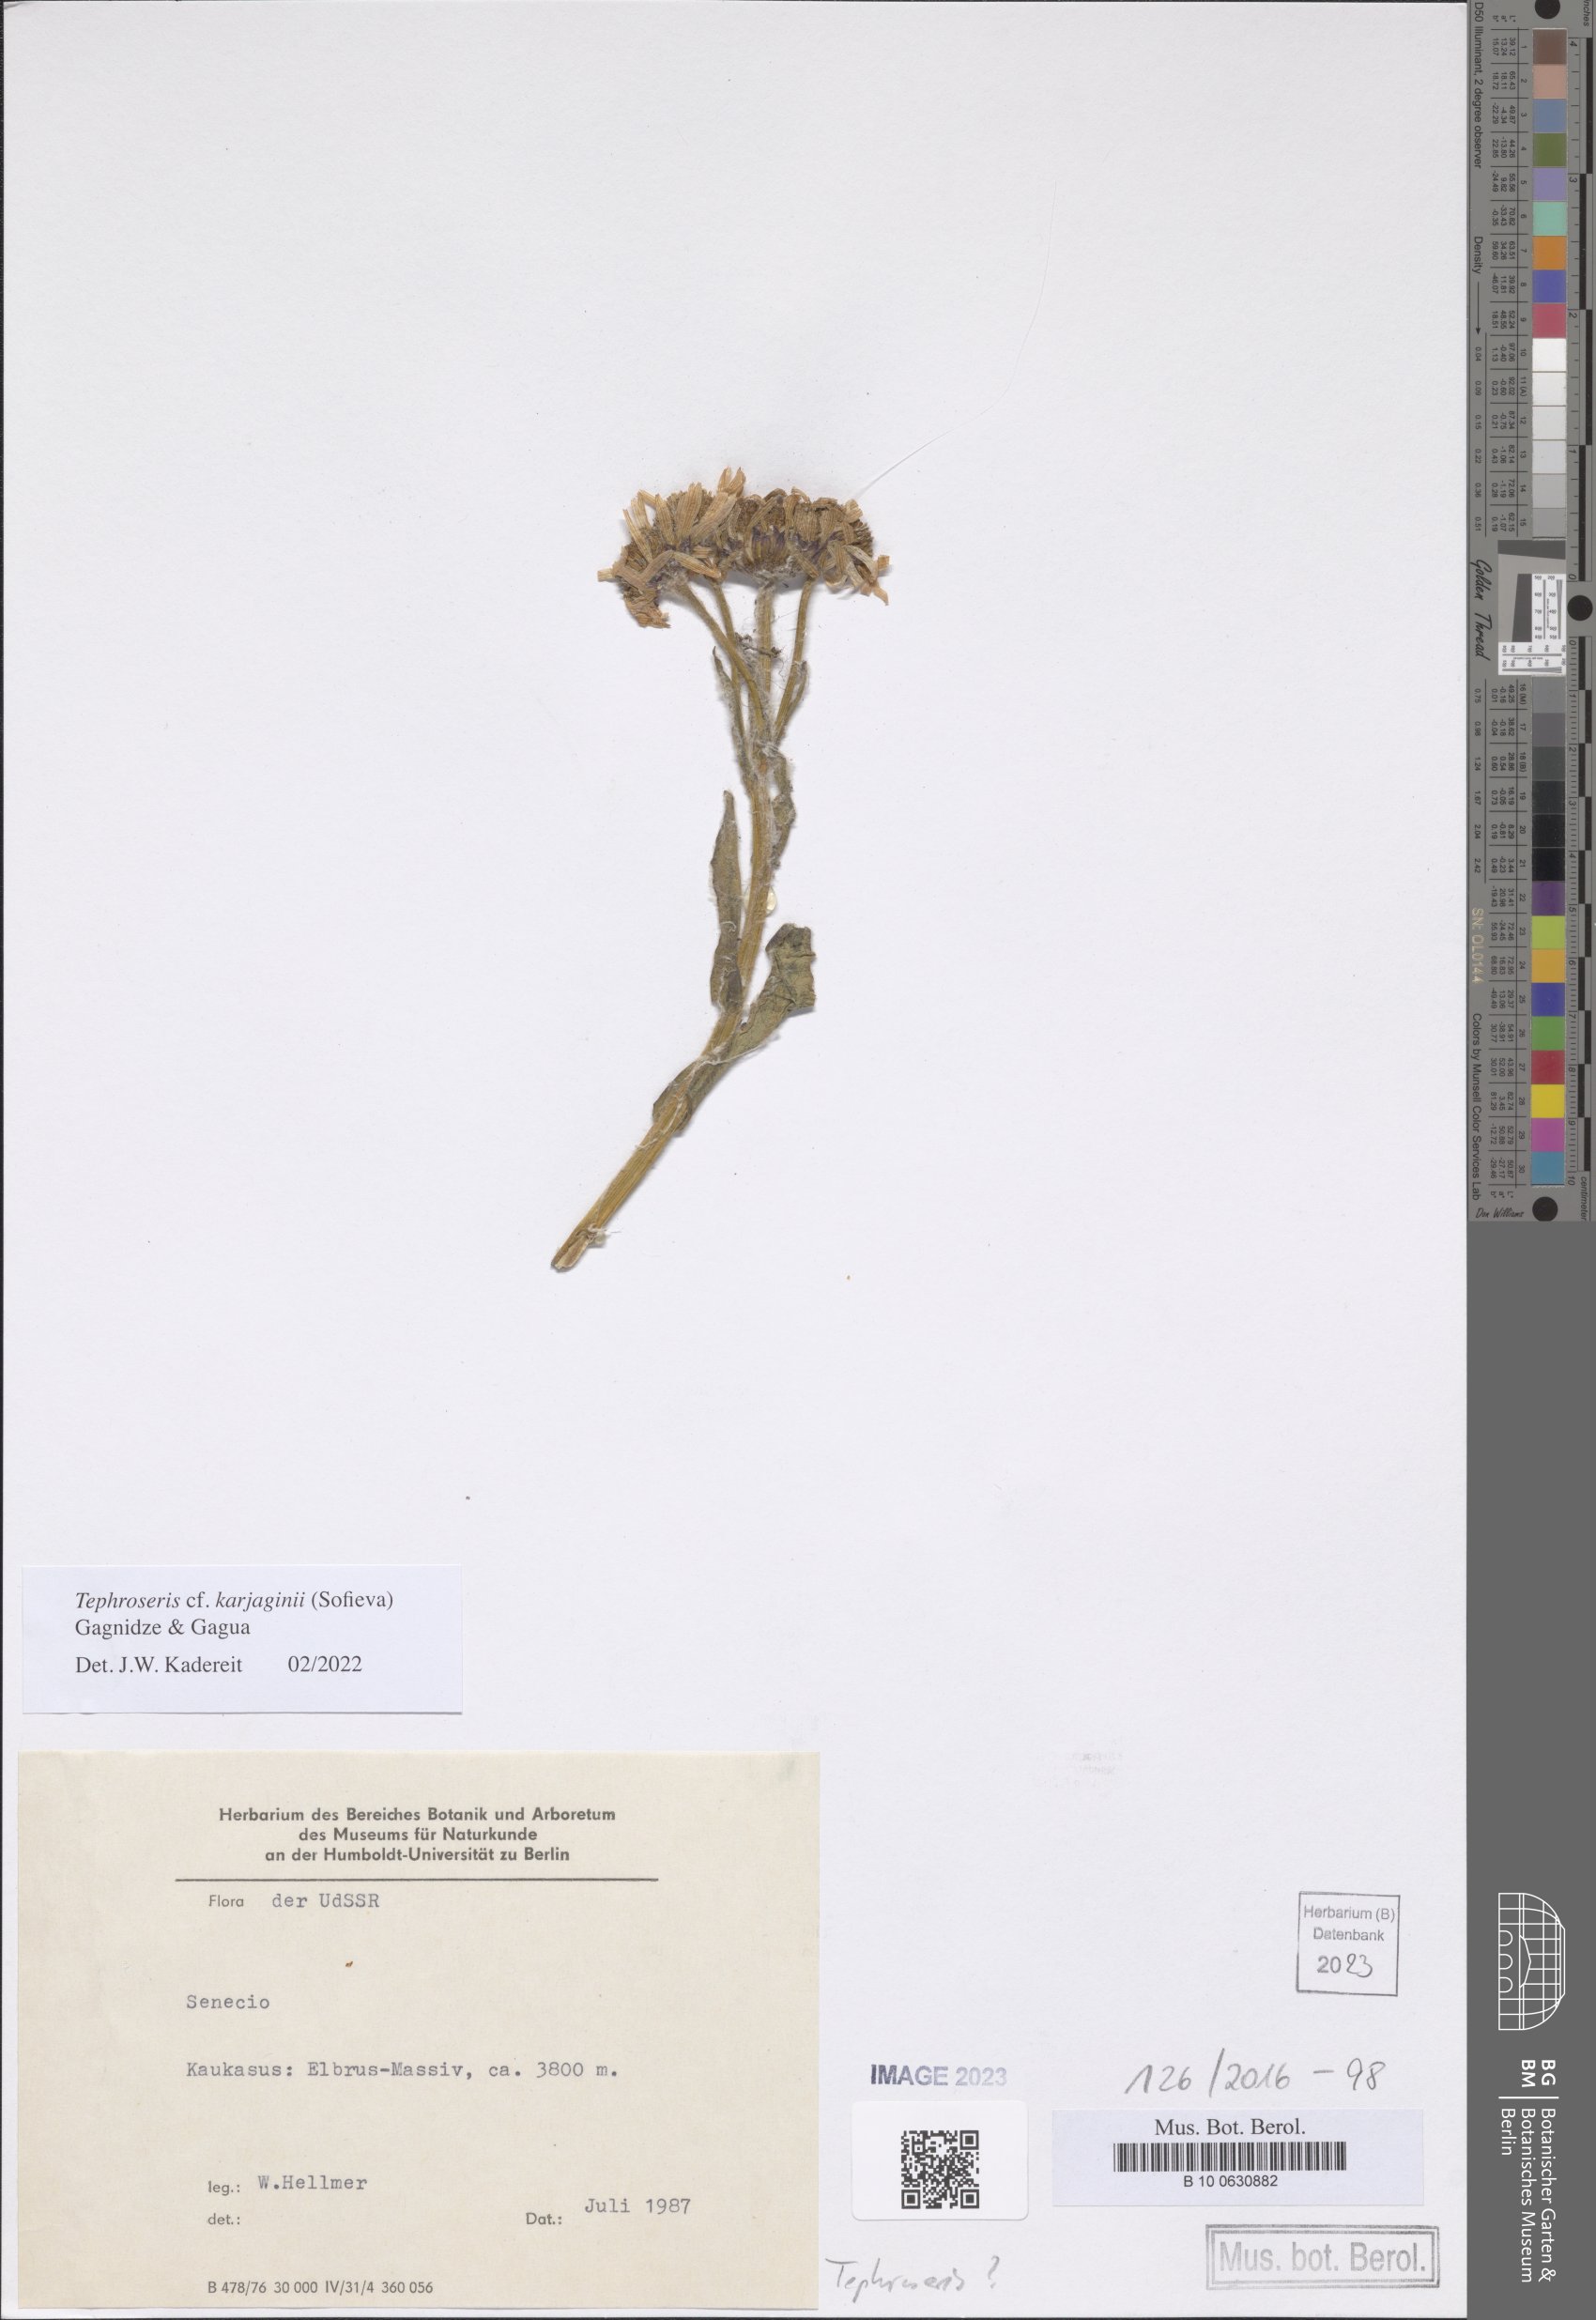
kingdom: Plantae
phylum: Tracheophyta
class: Magnoliopsida
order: Asterales
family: Asteraceae
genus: Tephroseris
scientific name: Tephroseris integrifolia
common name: Field fleawort
